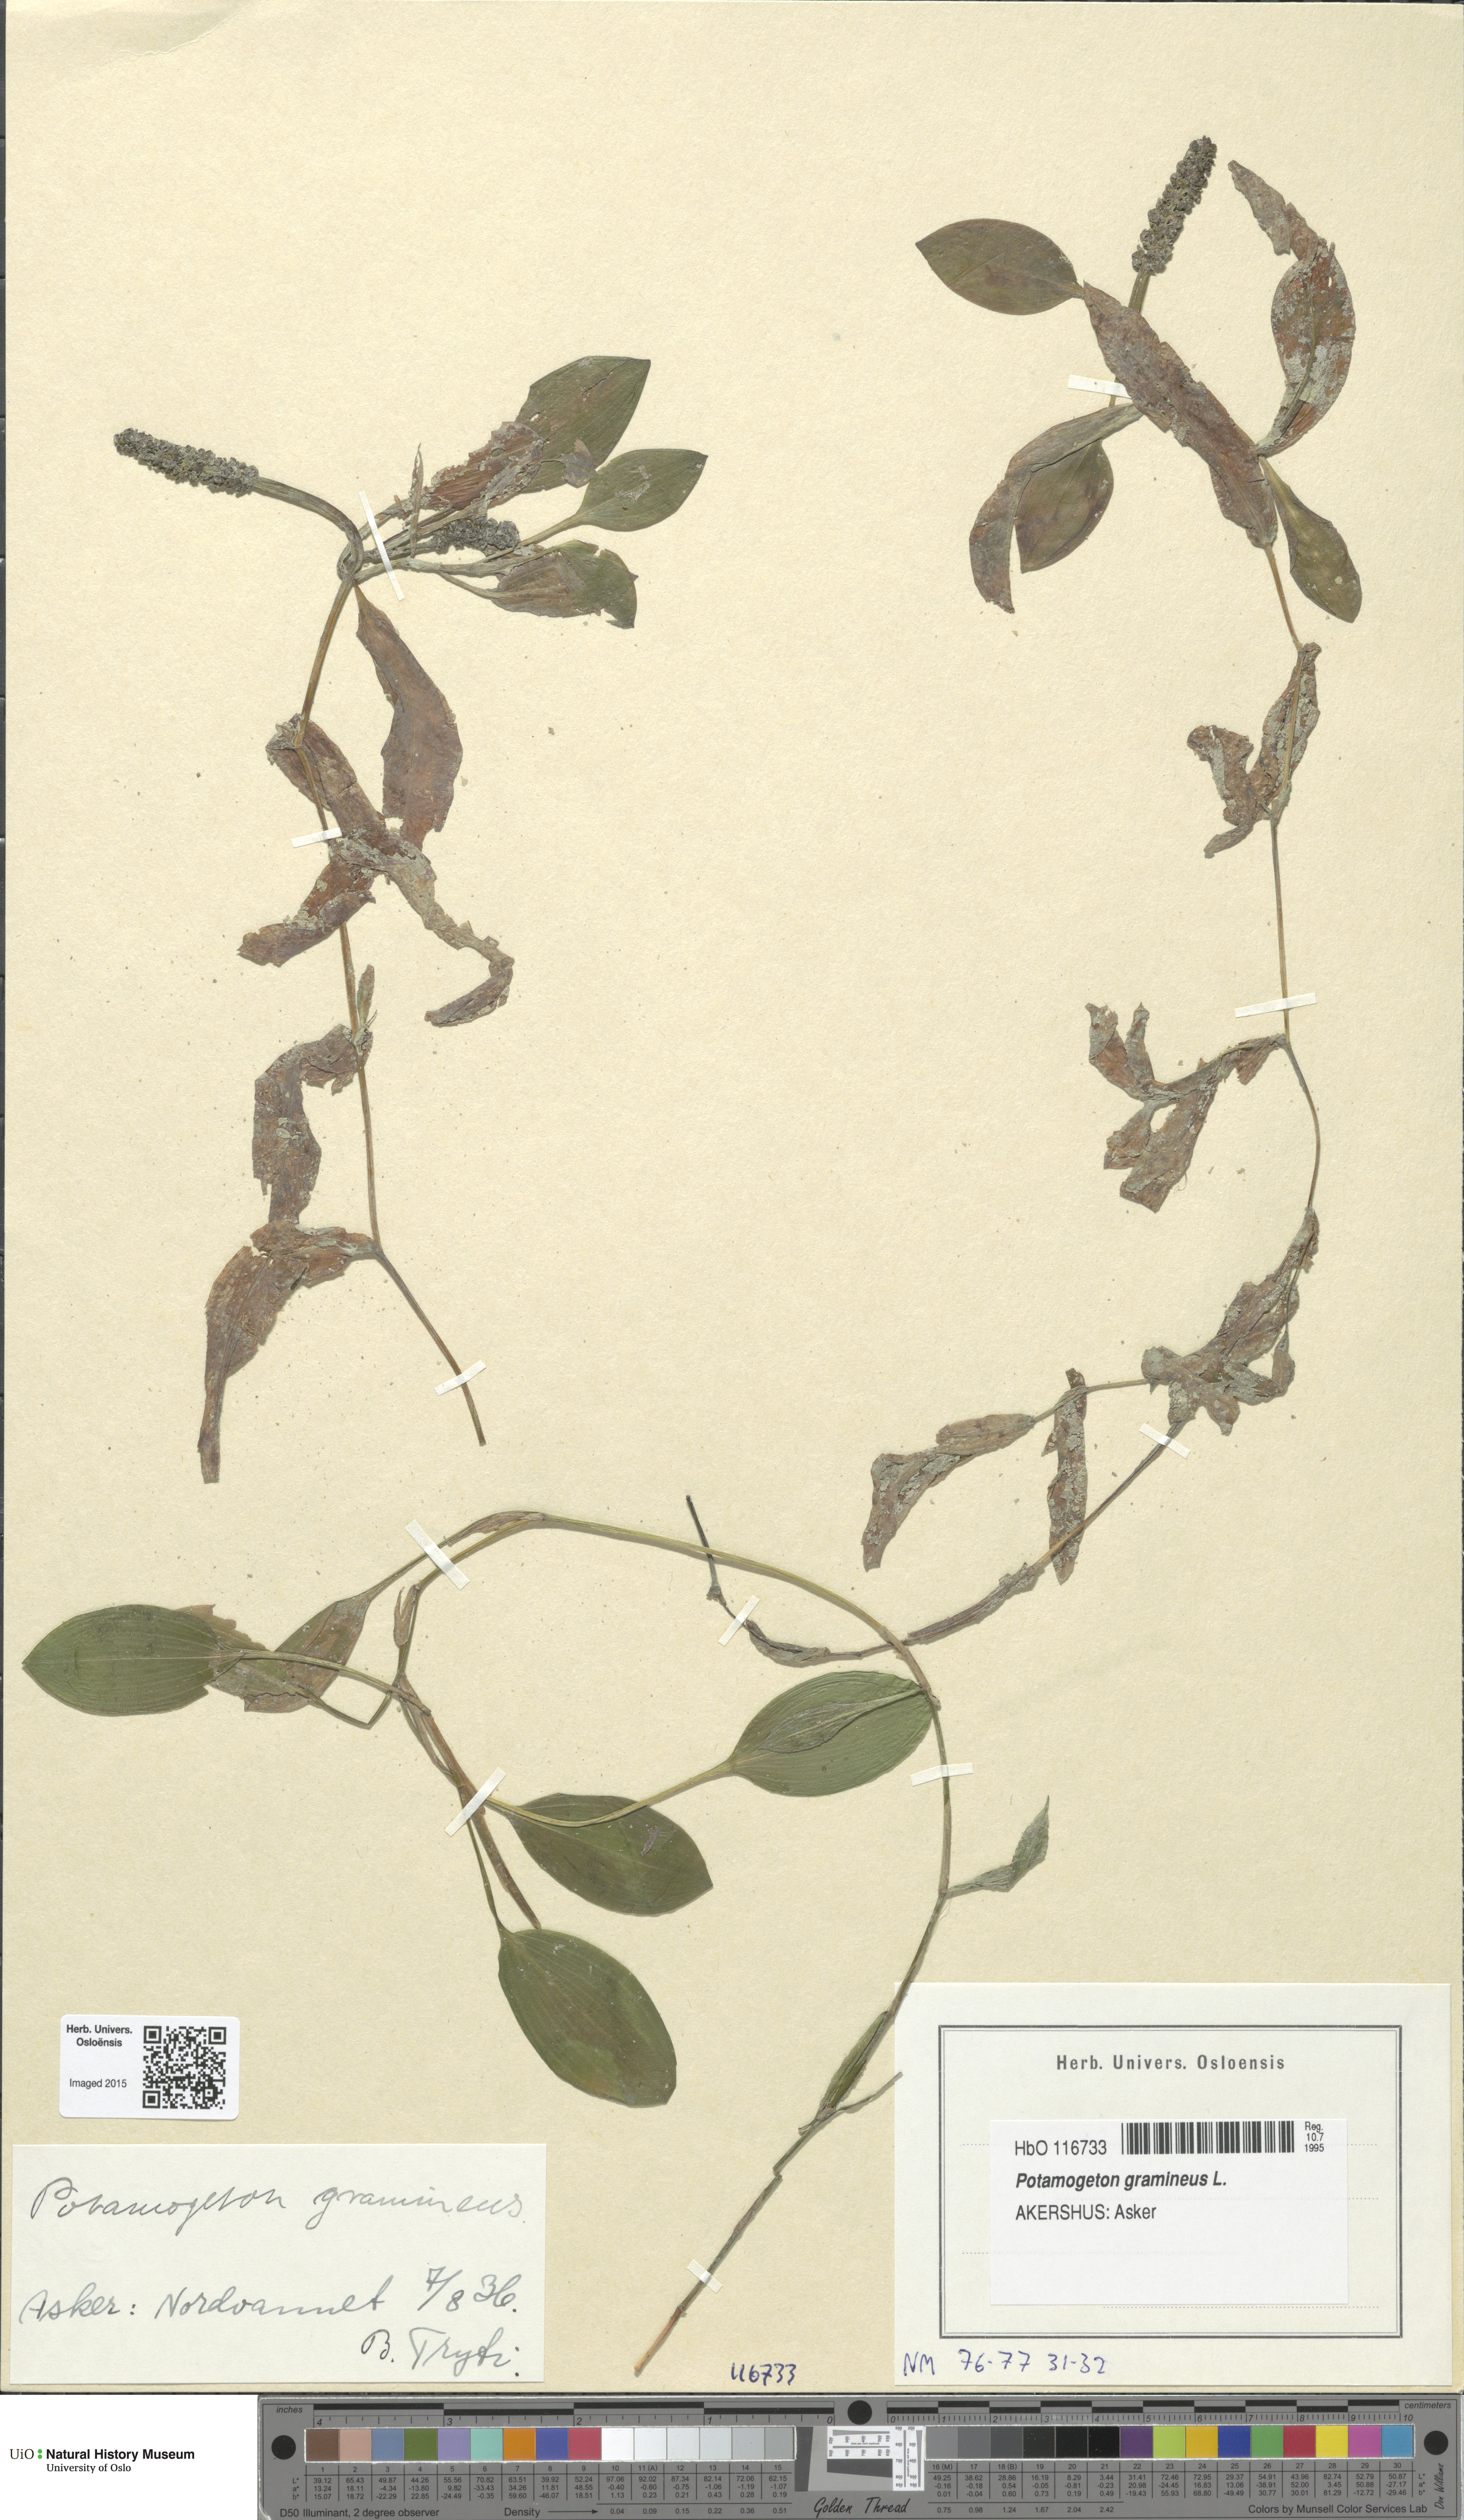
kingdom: Plantae
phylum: Tracheophyta
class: Liliopsida
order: Alismatales
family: Potamogetonaceae
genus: Potamogeton
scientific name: Potamogeton gramineus
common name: Various-leaved pondweed
